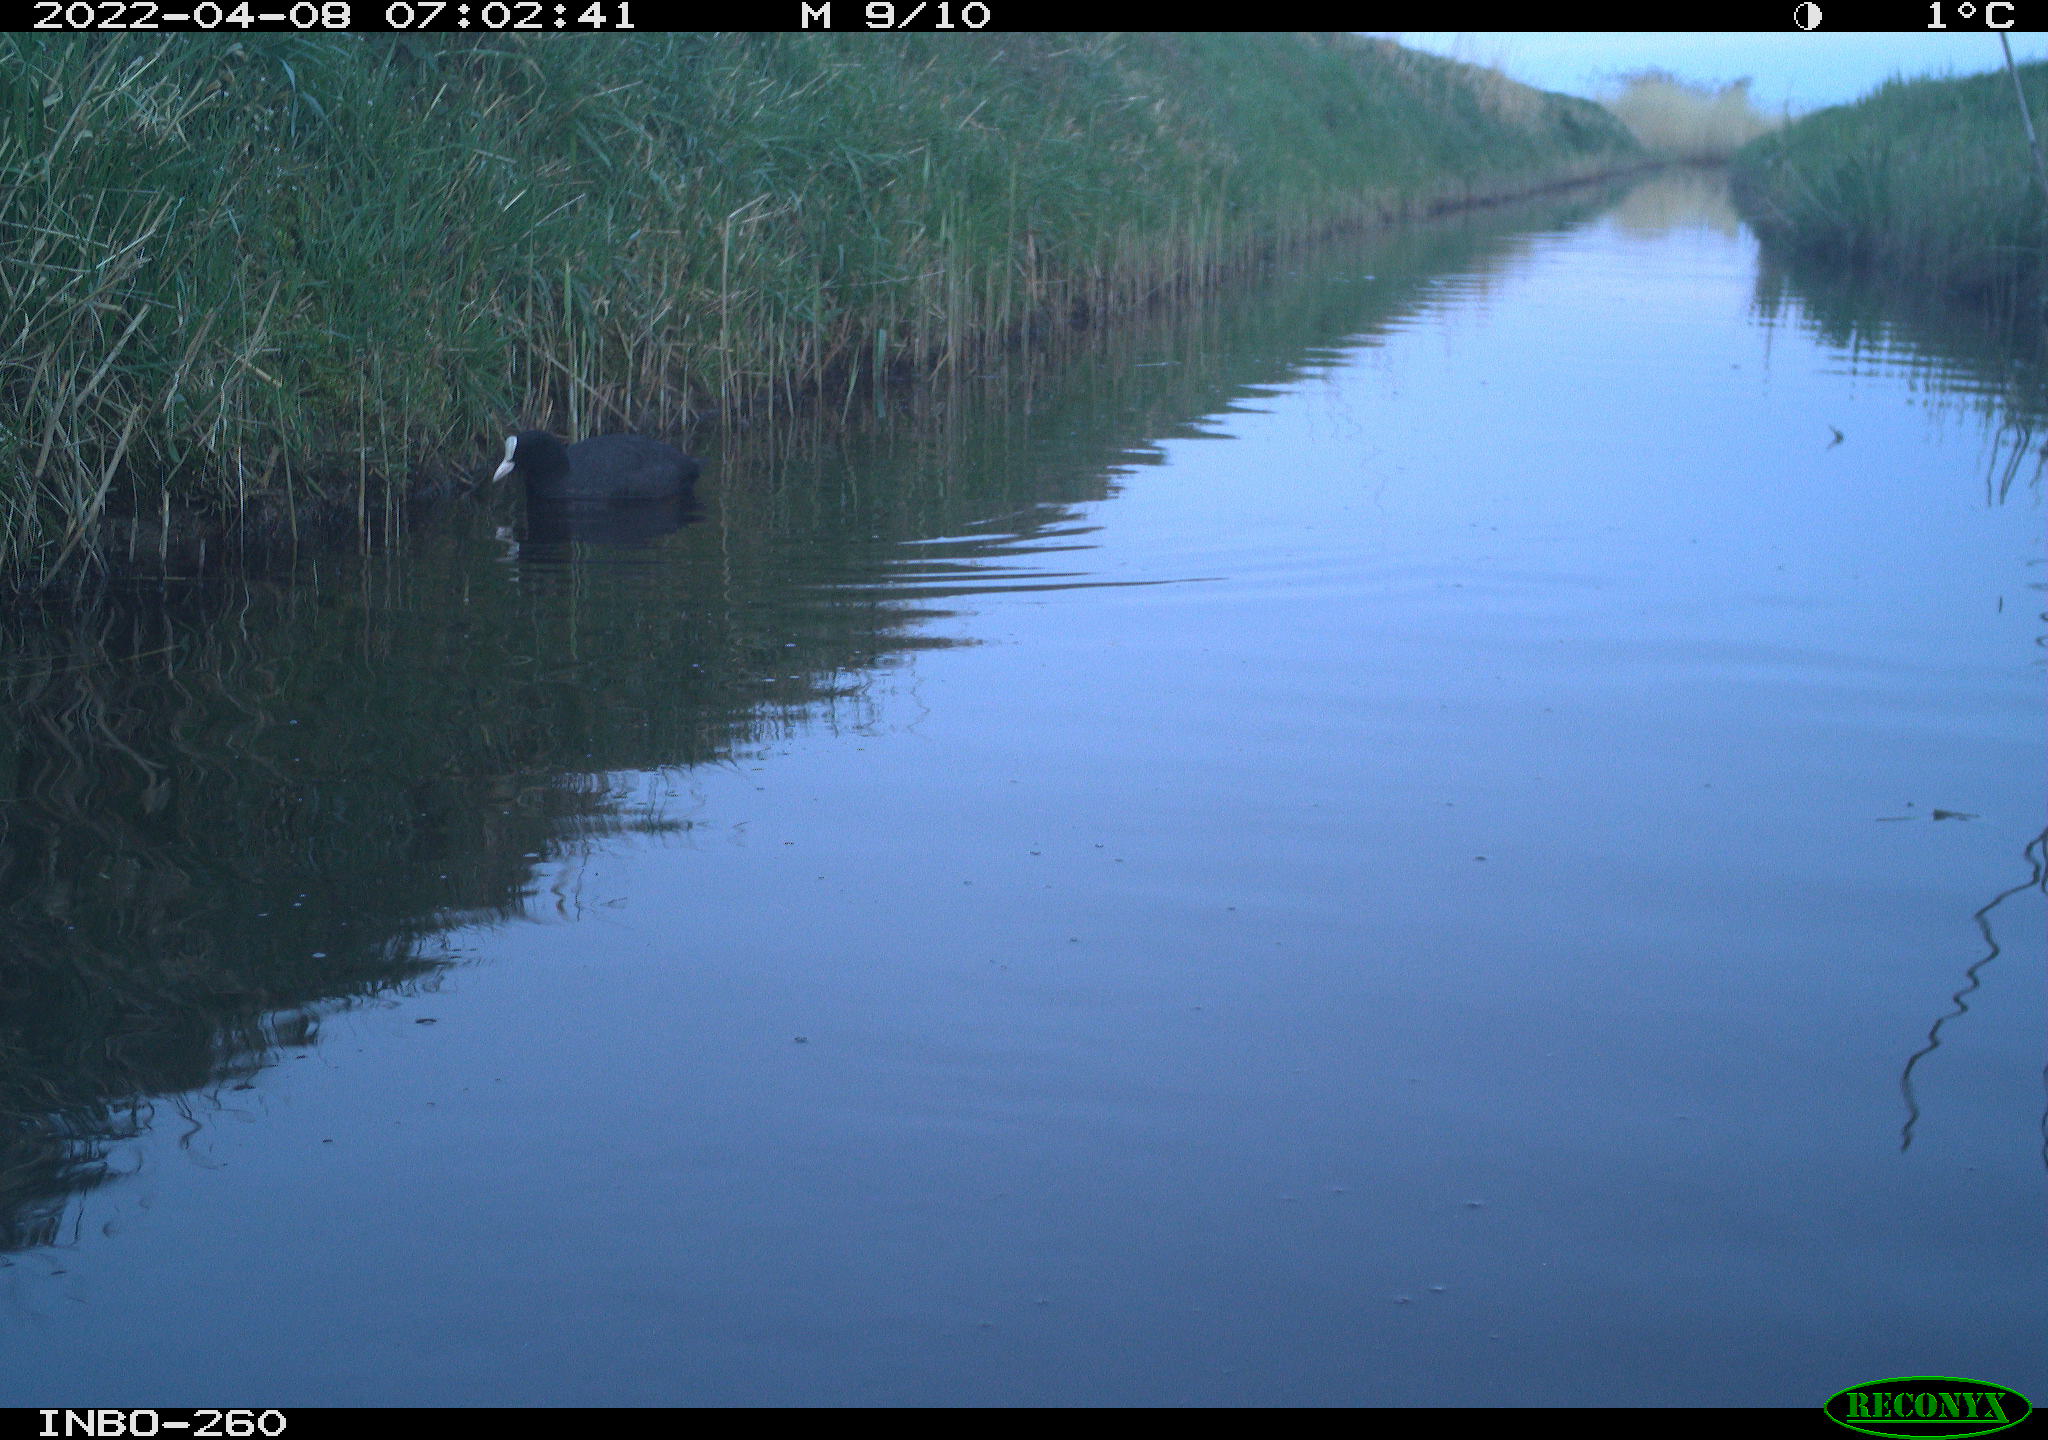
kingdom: Animalia
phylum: Chordata
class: Aves
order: Gruiformes
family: Rallidae
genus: Fulica
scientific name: Fulica atra
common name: Eurasian coot
